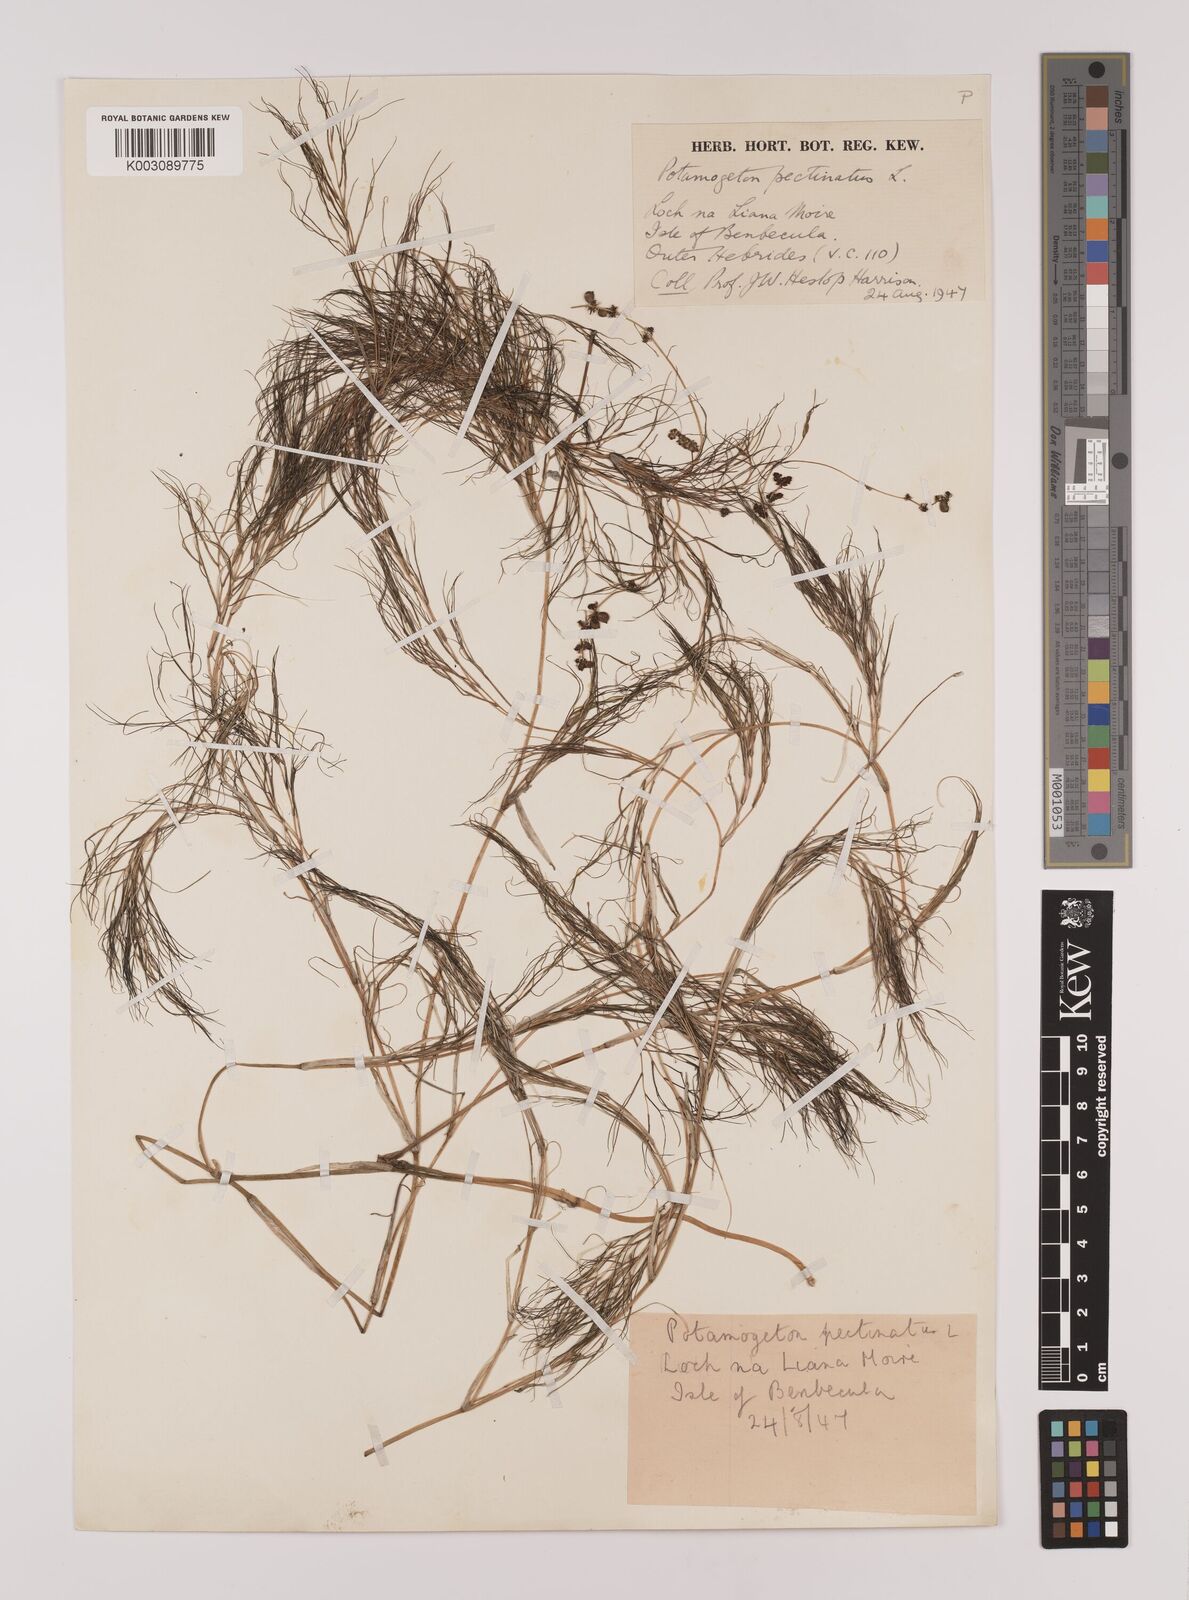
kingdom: Plantae
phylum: Tracheophyta
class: Liliopsida
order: Alismatales
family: Potamogetonaceae
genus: Stuckenia
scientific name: Stuckenia pectinata
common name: Sago pondweed
